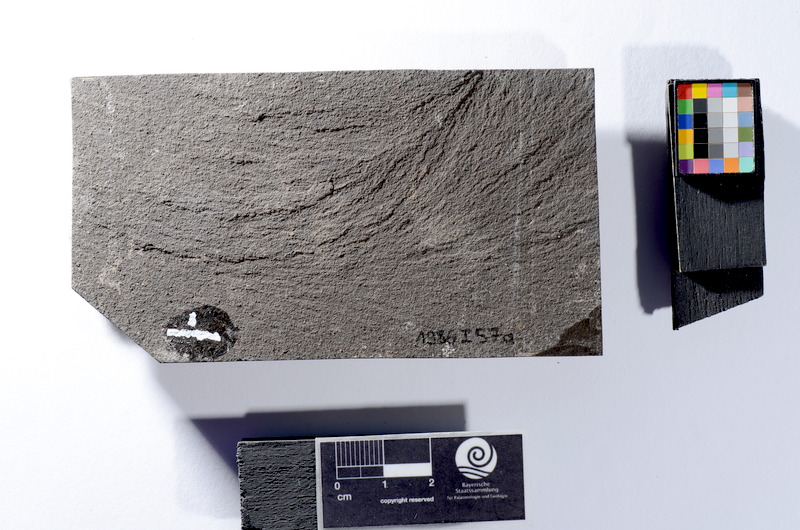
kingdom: Animalia
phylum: Chordata
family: Leptolepididae
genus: Leptolepis
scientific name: Leptolepis coryphaenoides
